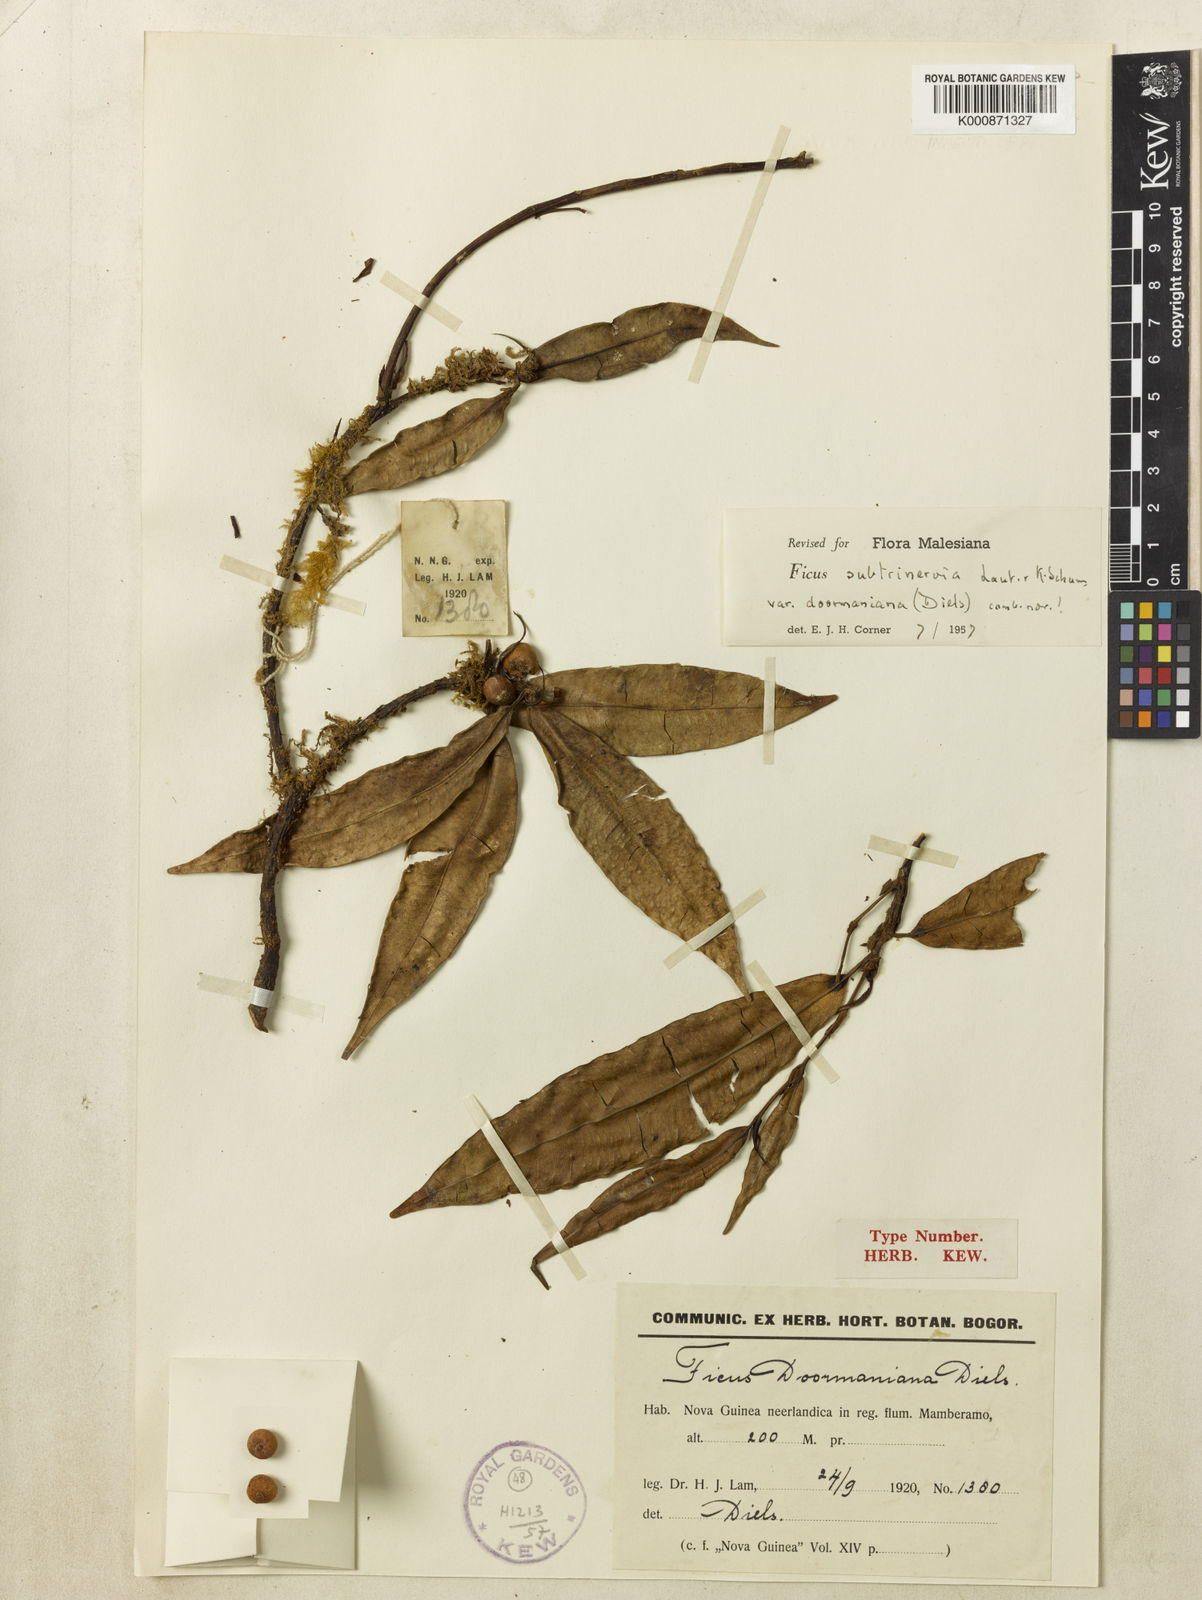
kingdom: Plantae
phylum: Tracheophyta
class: Magnoliopsida
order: Rosales
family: Moraceae
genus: Ficus
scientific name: Ficus subtrinervia
